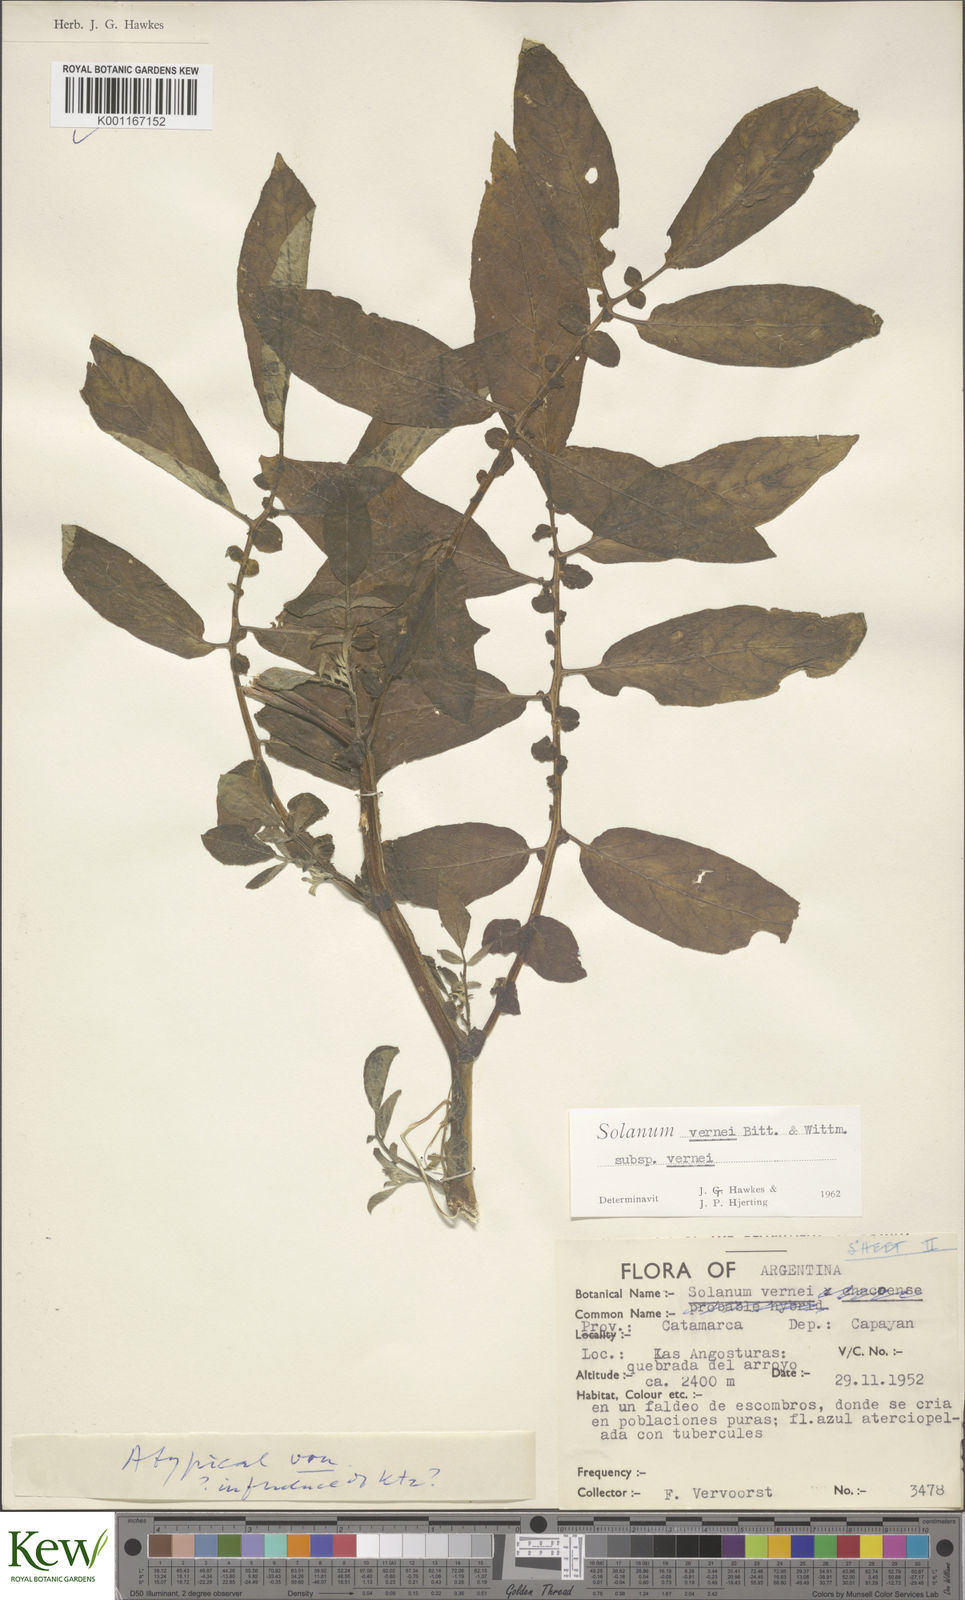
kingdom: Plantae
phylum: Tracheophyta
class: Magnoliopsida
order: Solanales
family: Solanaceae
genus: Solanum
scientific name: Solanum vernei
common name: Purple potato
